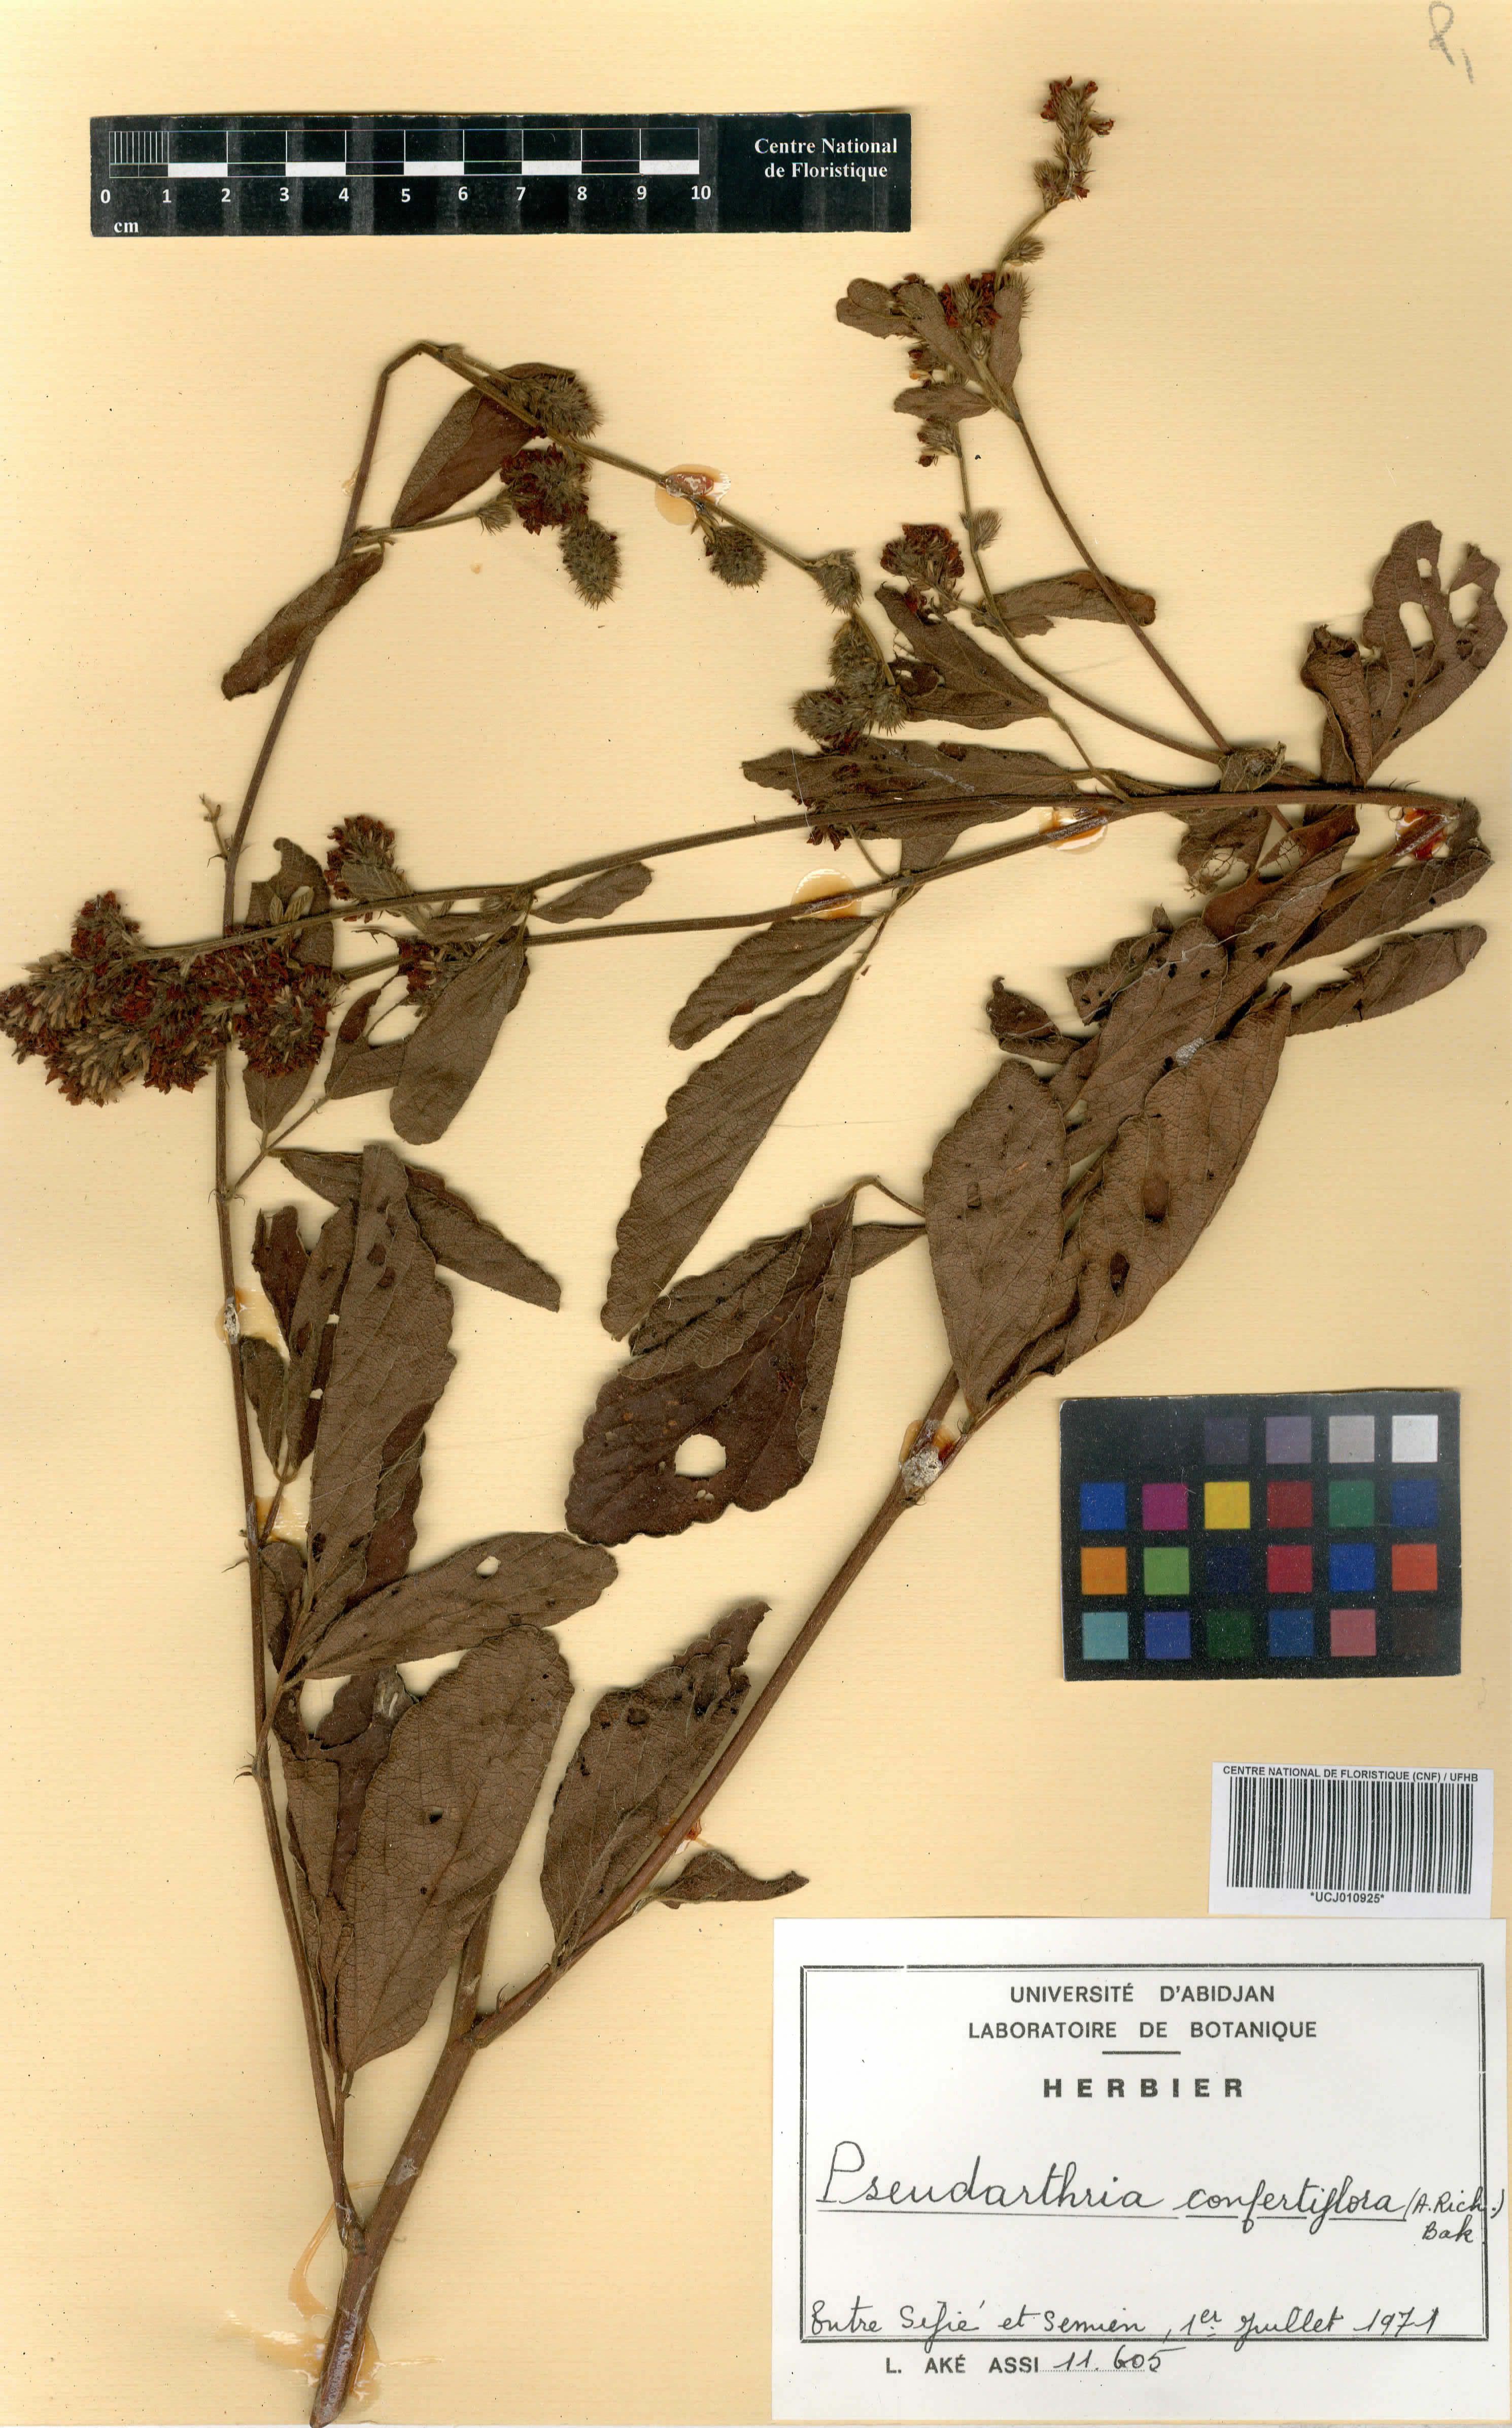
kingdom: Plantae
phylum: Tracheophyta
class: Magnoliopsida
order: Fabales
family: Fabaceae
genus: Pseudarthria
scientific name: Pseudarthria confertiflora
